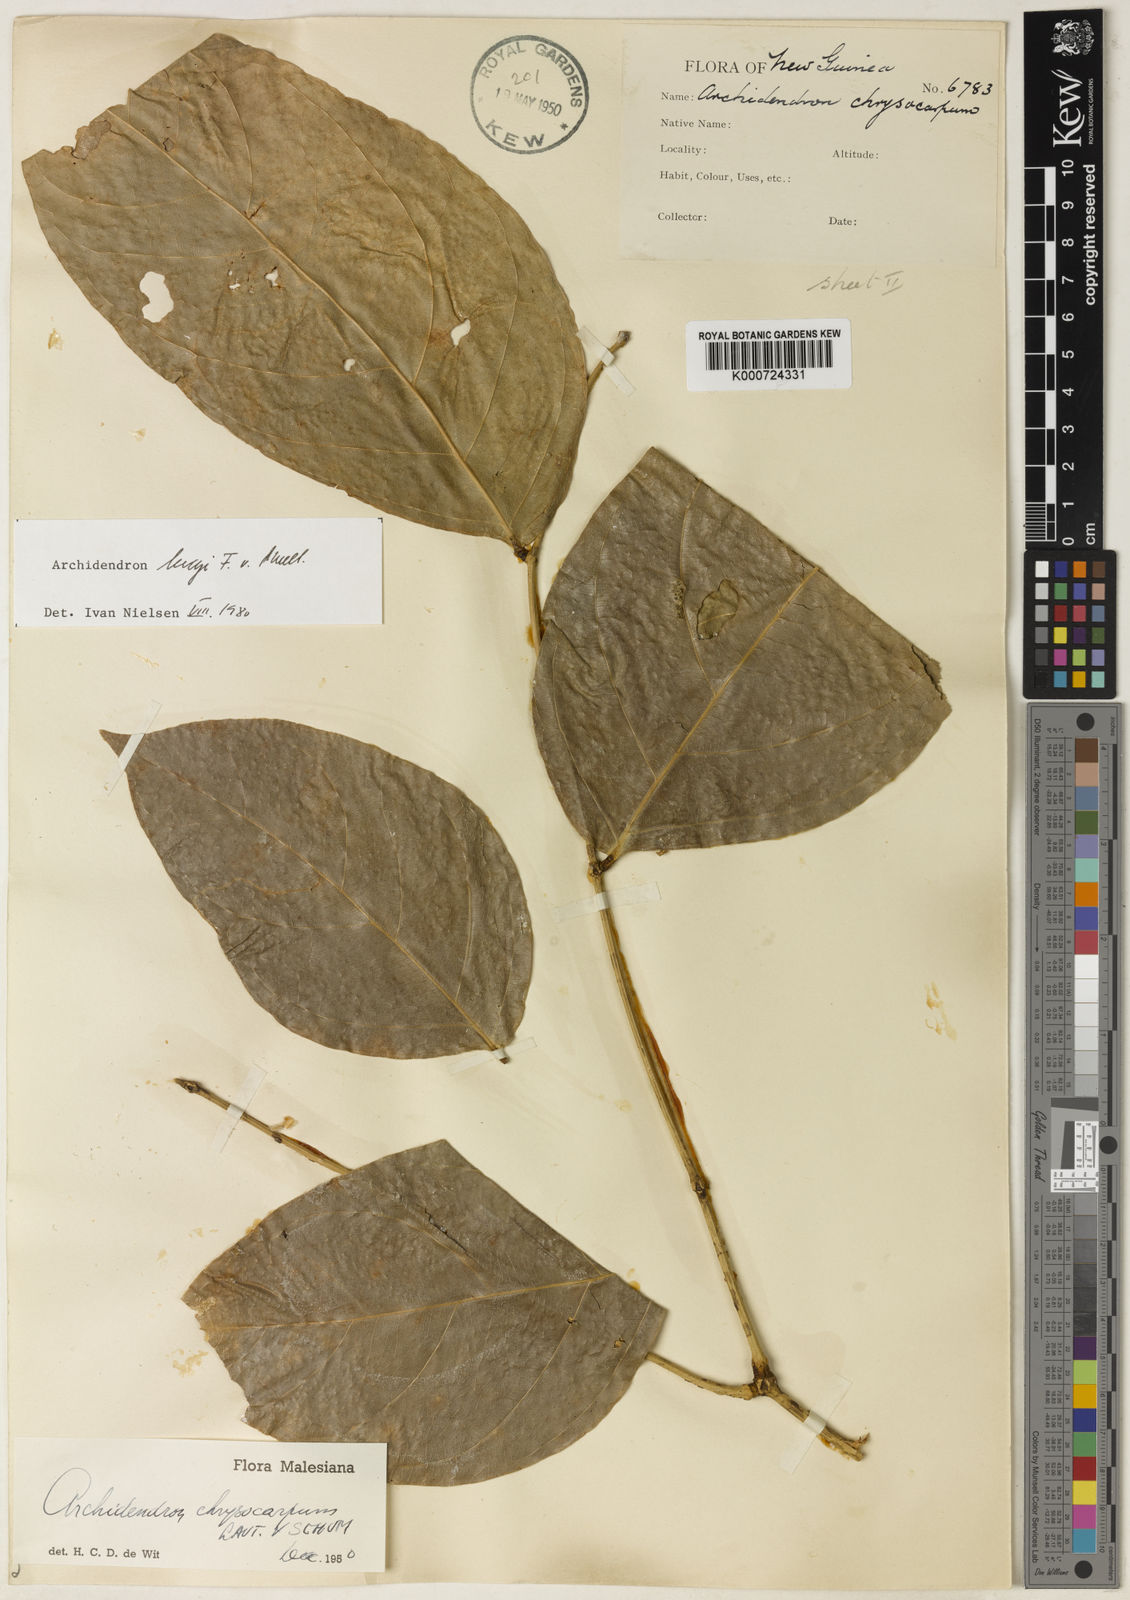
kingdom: Plantae
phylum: Tracheophyta
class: Magnoliopsida
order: Fabales
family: Fabaceae
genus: Archidendron
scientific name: Archidendron lucyi
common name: Scarlet bean
